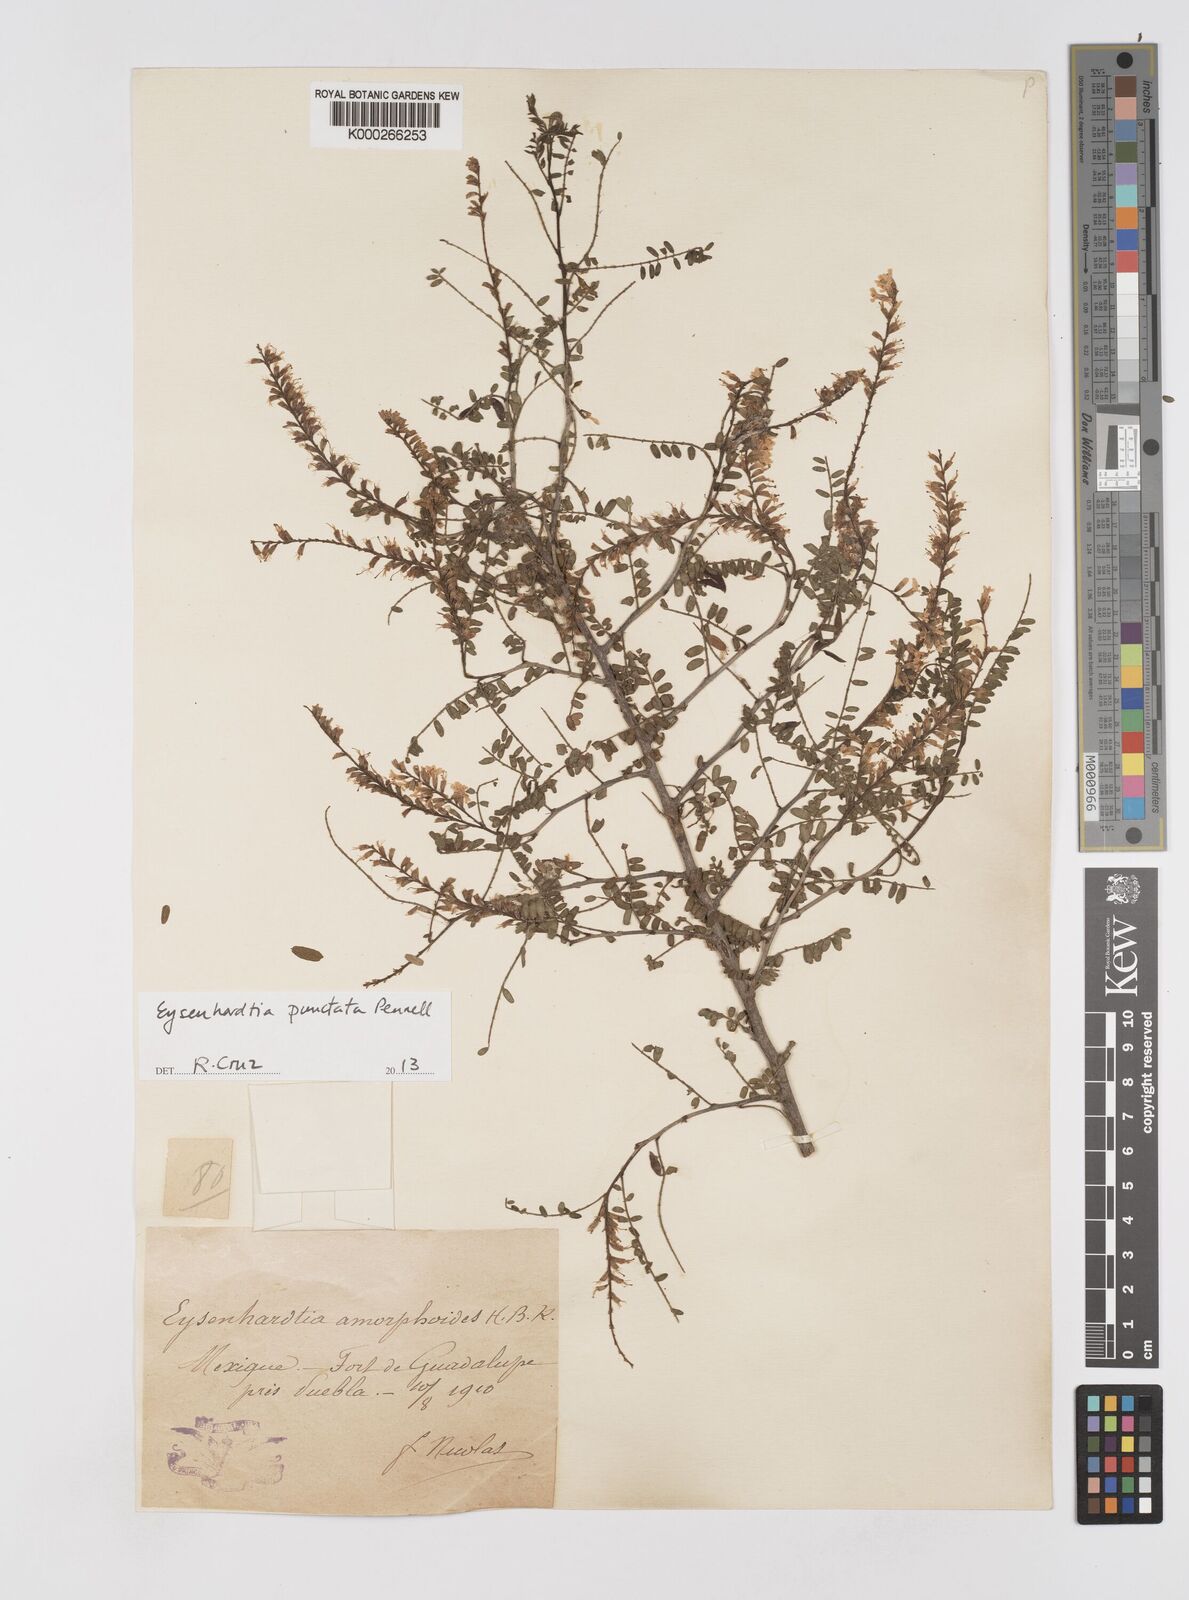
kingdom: Plantae
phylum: Tracheophyta
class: Magnoliopsida
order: Fabales
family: Fabaceae
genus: Eysenhardtia
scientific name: Eysenhardtia punctata
